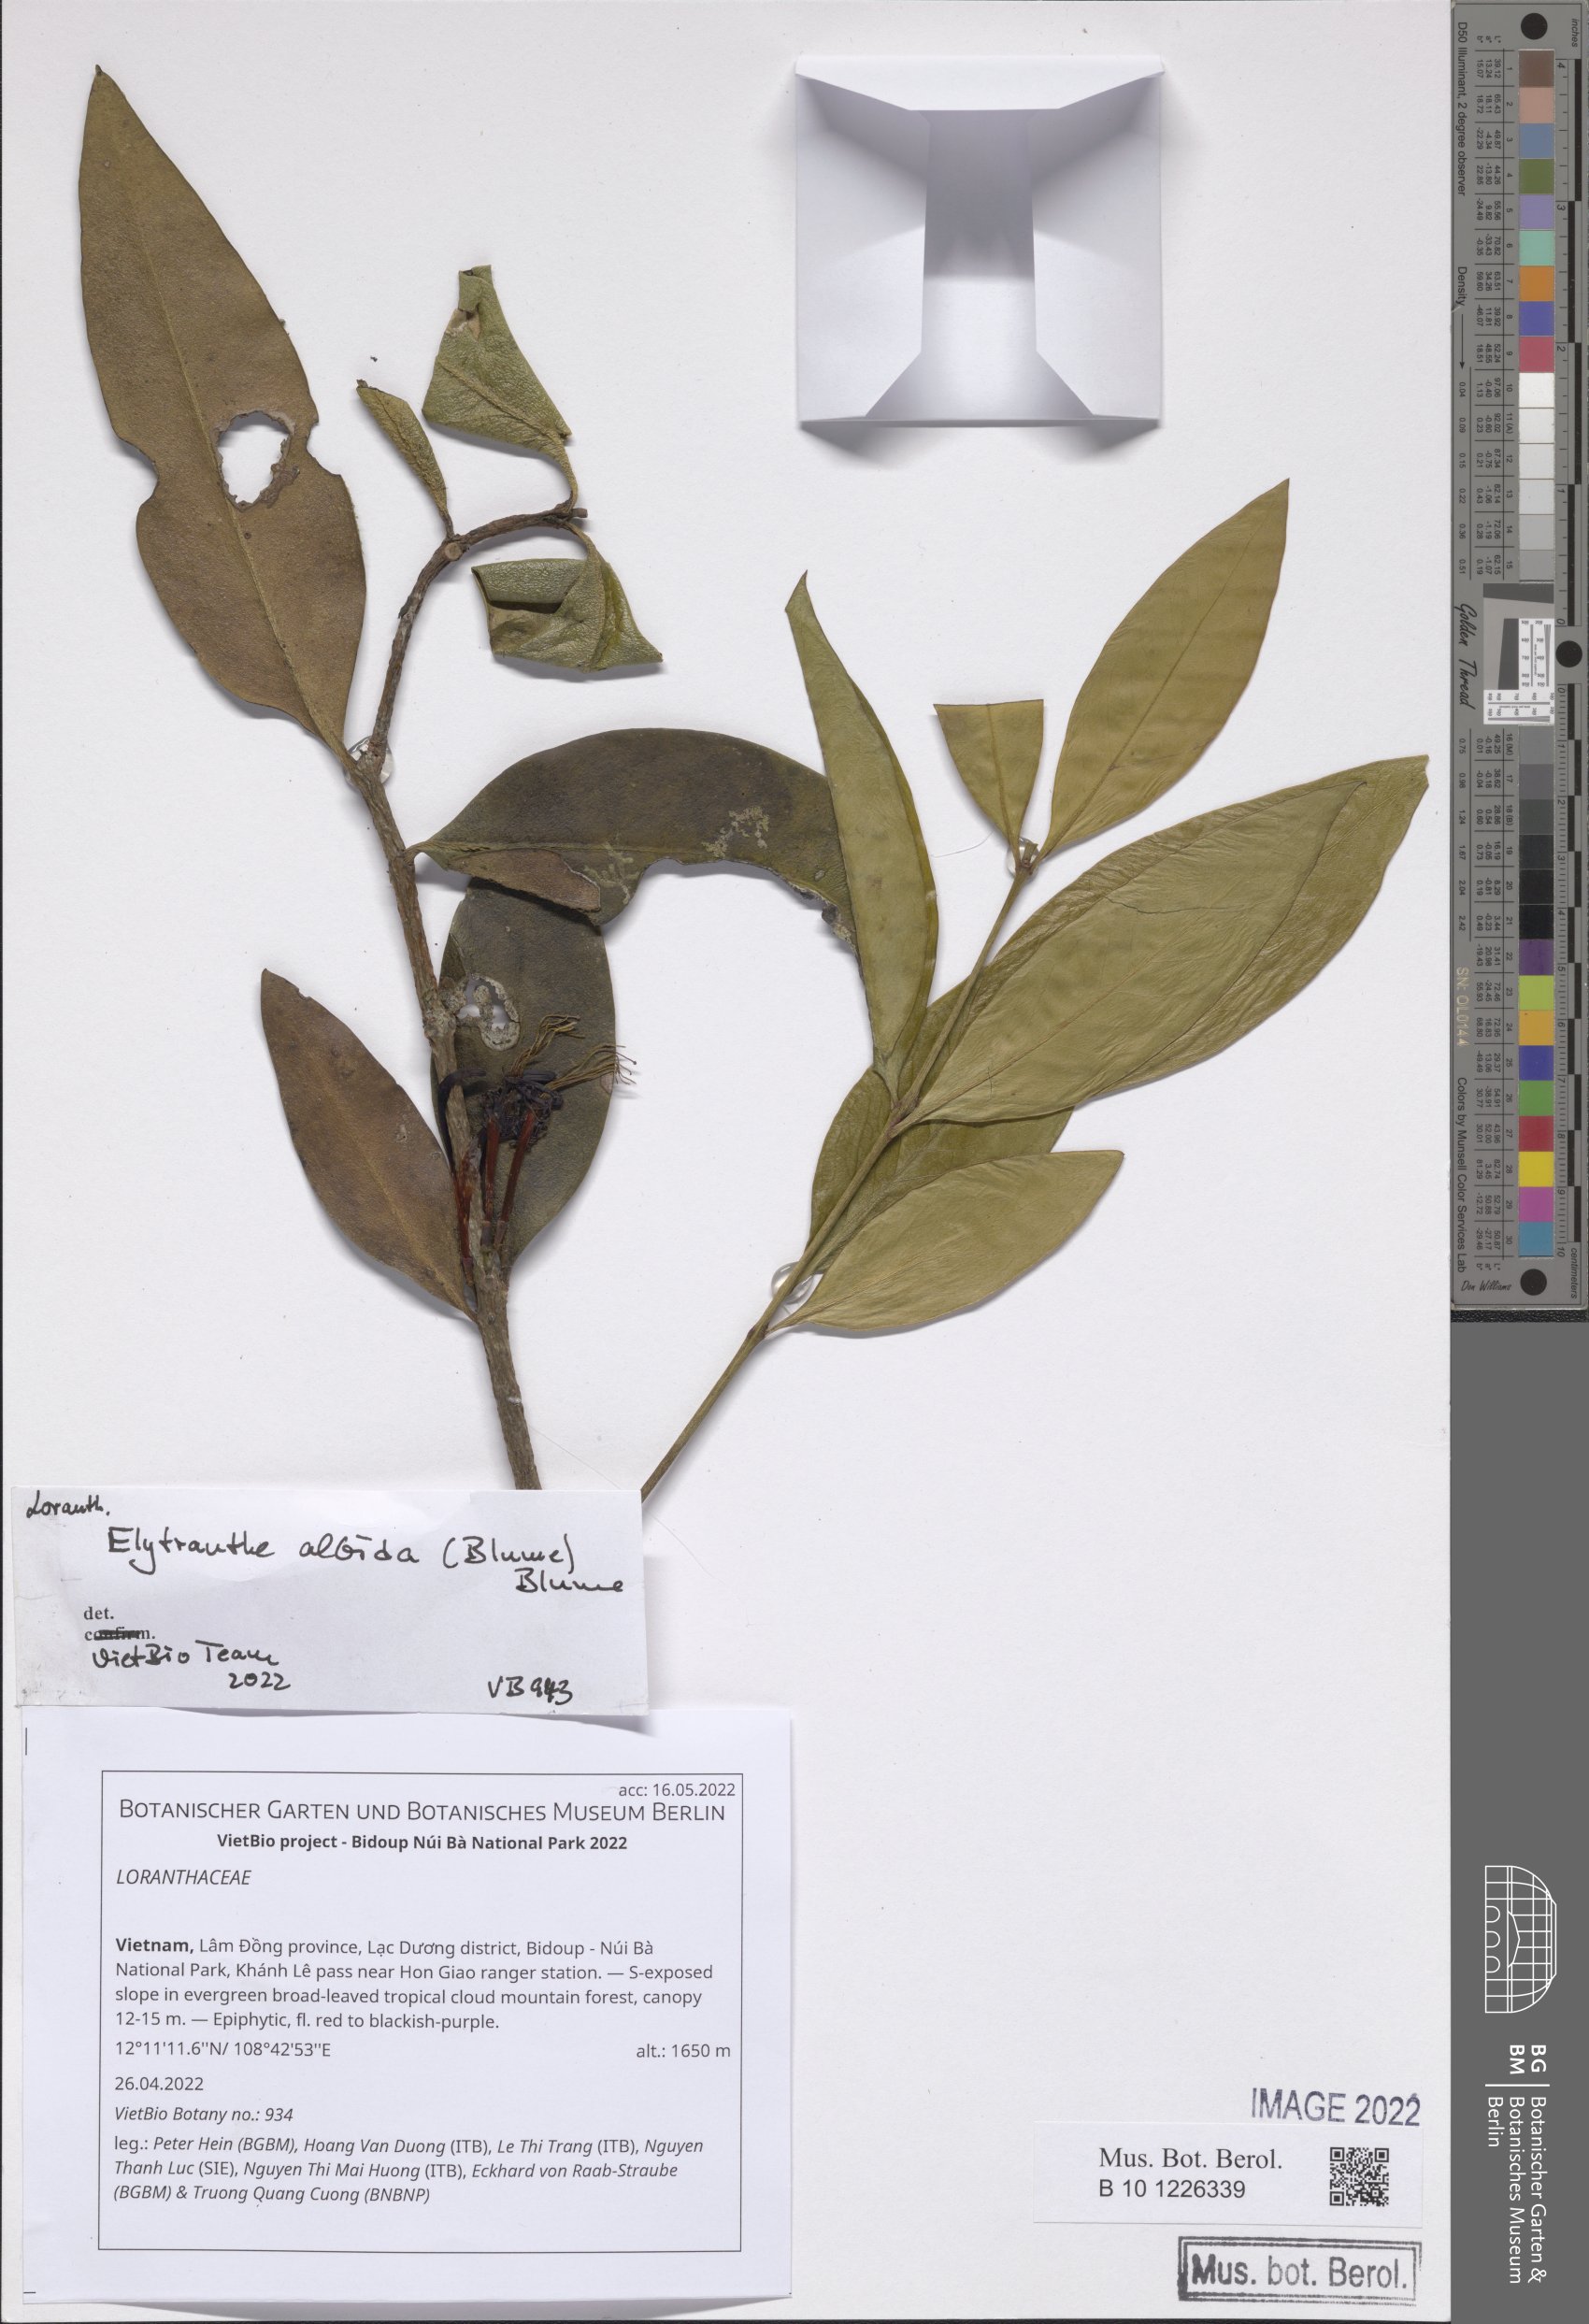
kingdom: Plantae
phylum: Tracheophyta
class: Magnoliopsida
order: Santalales
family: Loranthaceae
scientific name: Loranthaceae
